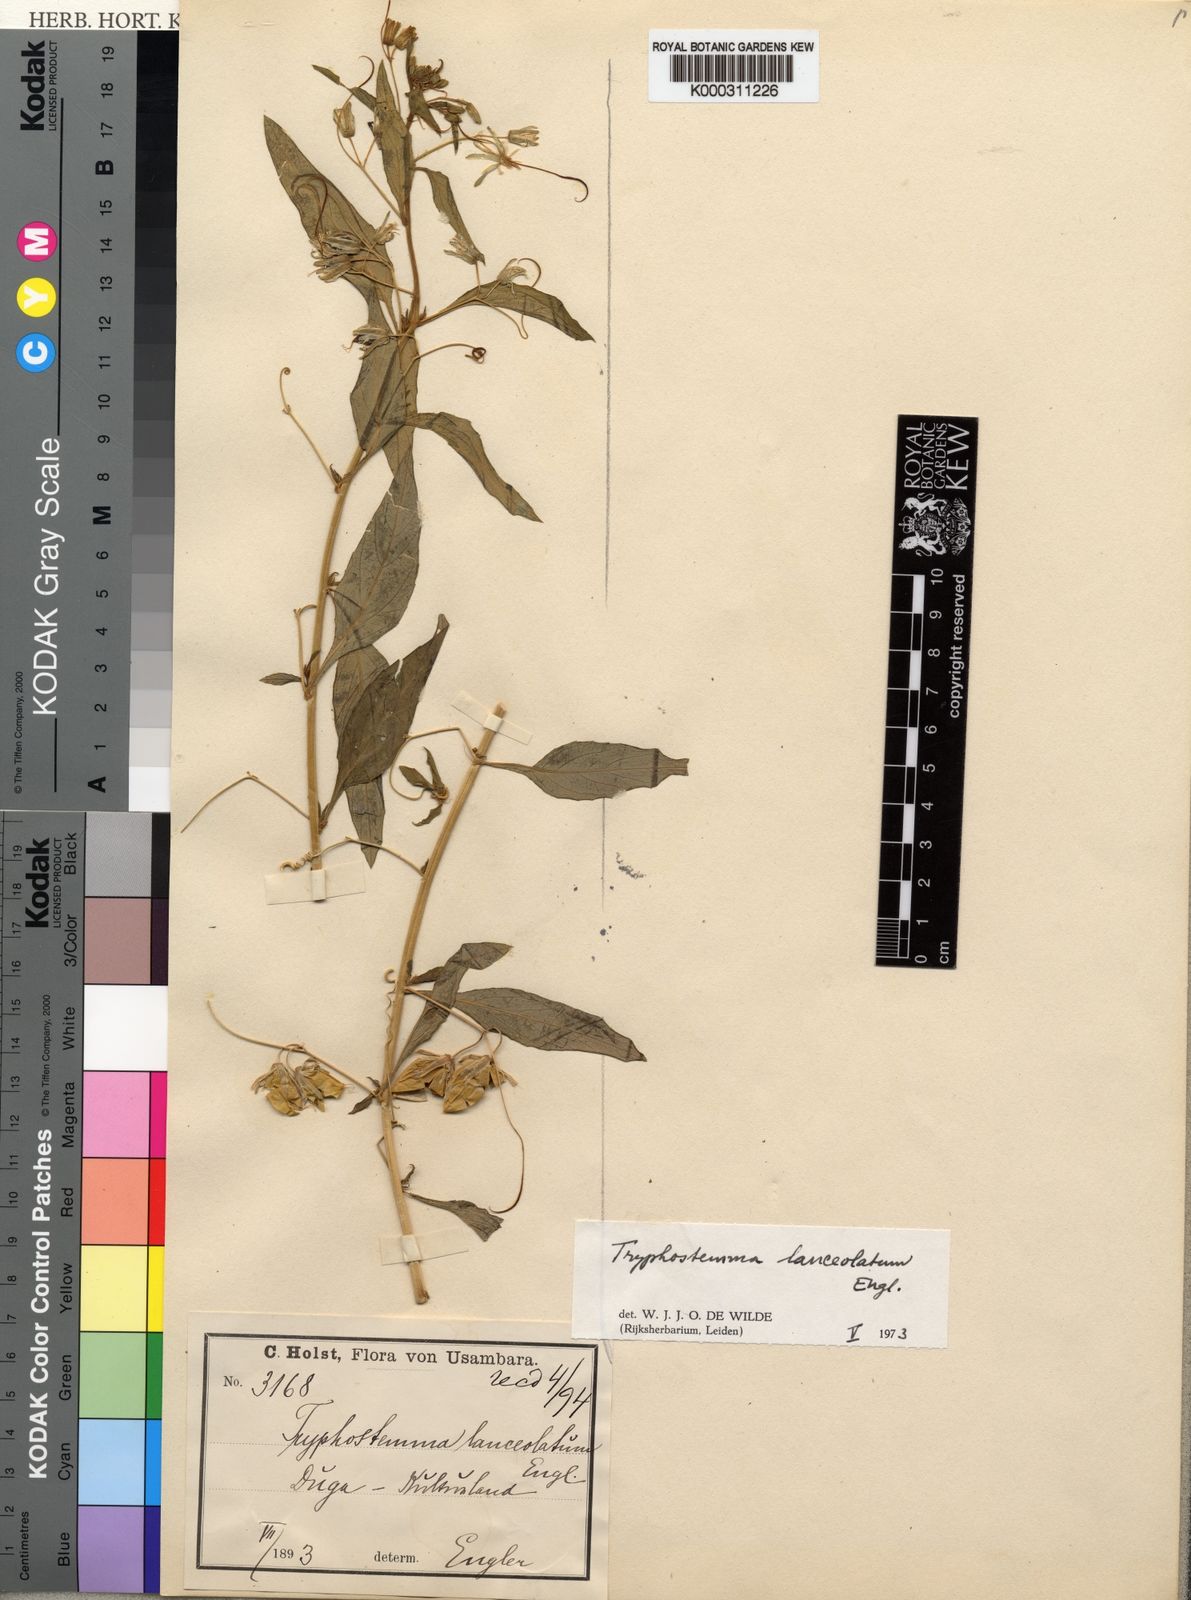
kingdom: Plantae
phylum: Tracheophyta
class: Magnoliopsida
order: Malpighiales
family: Passifloraceae
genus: Basananthe
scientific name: Basananthe lanceolata
